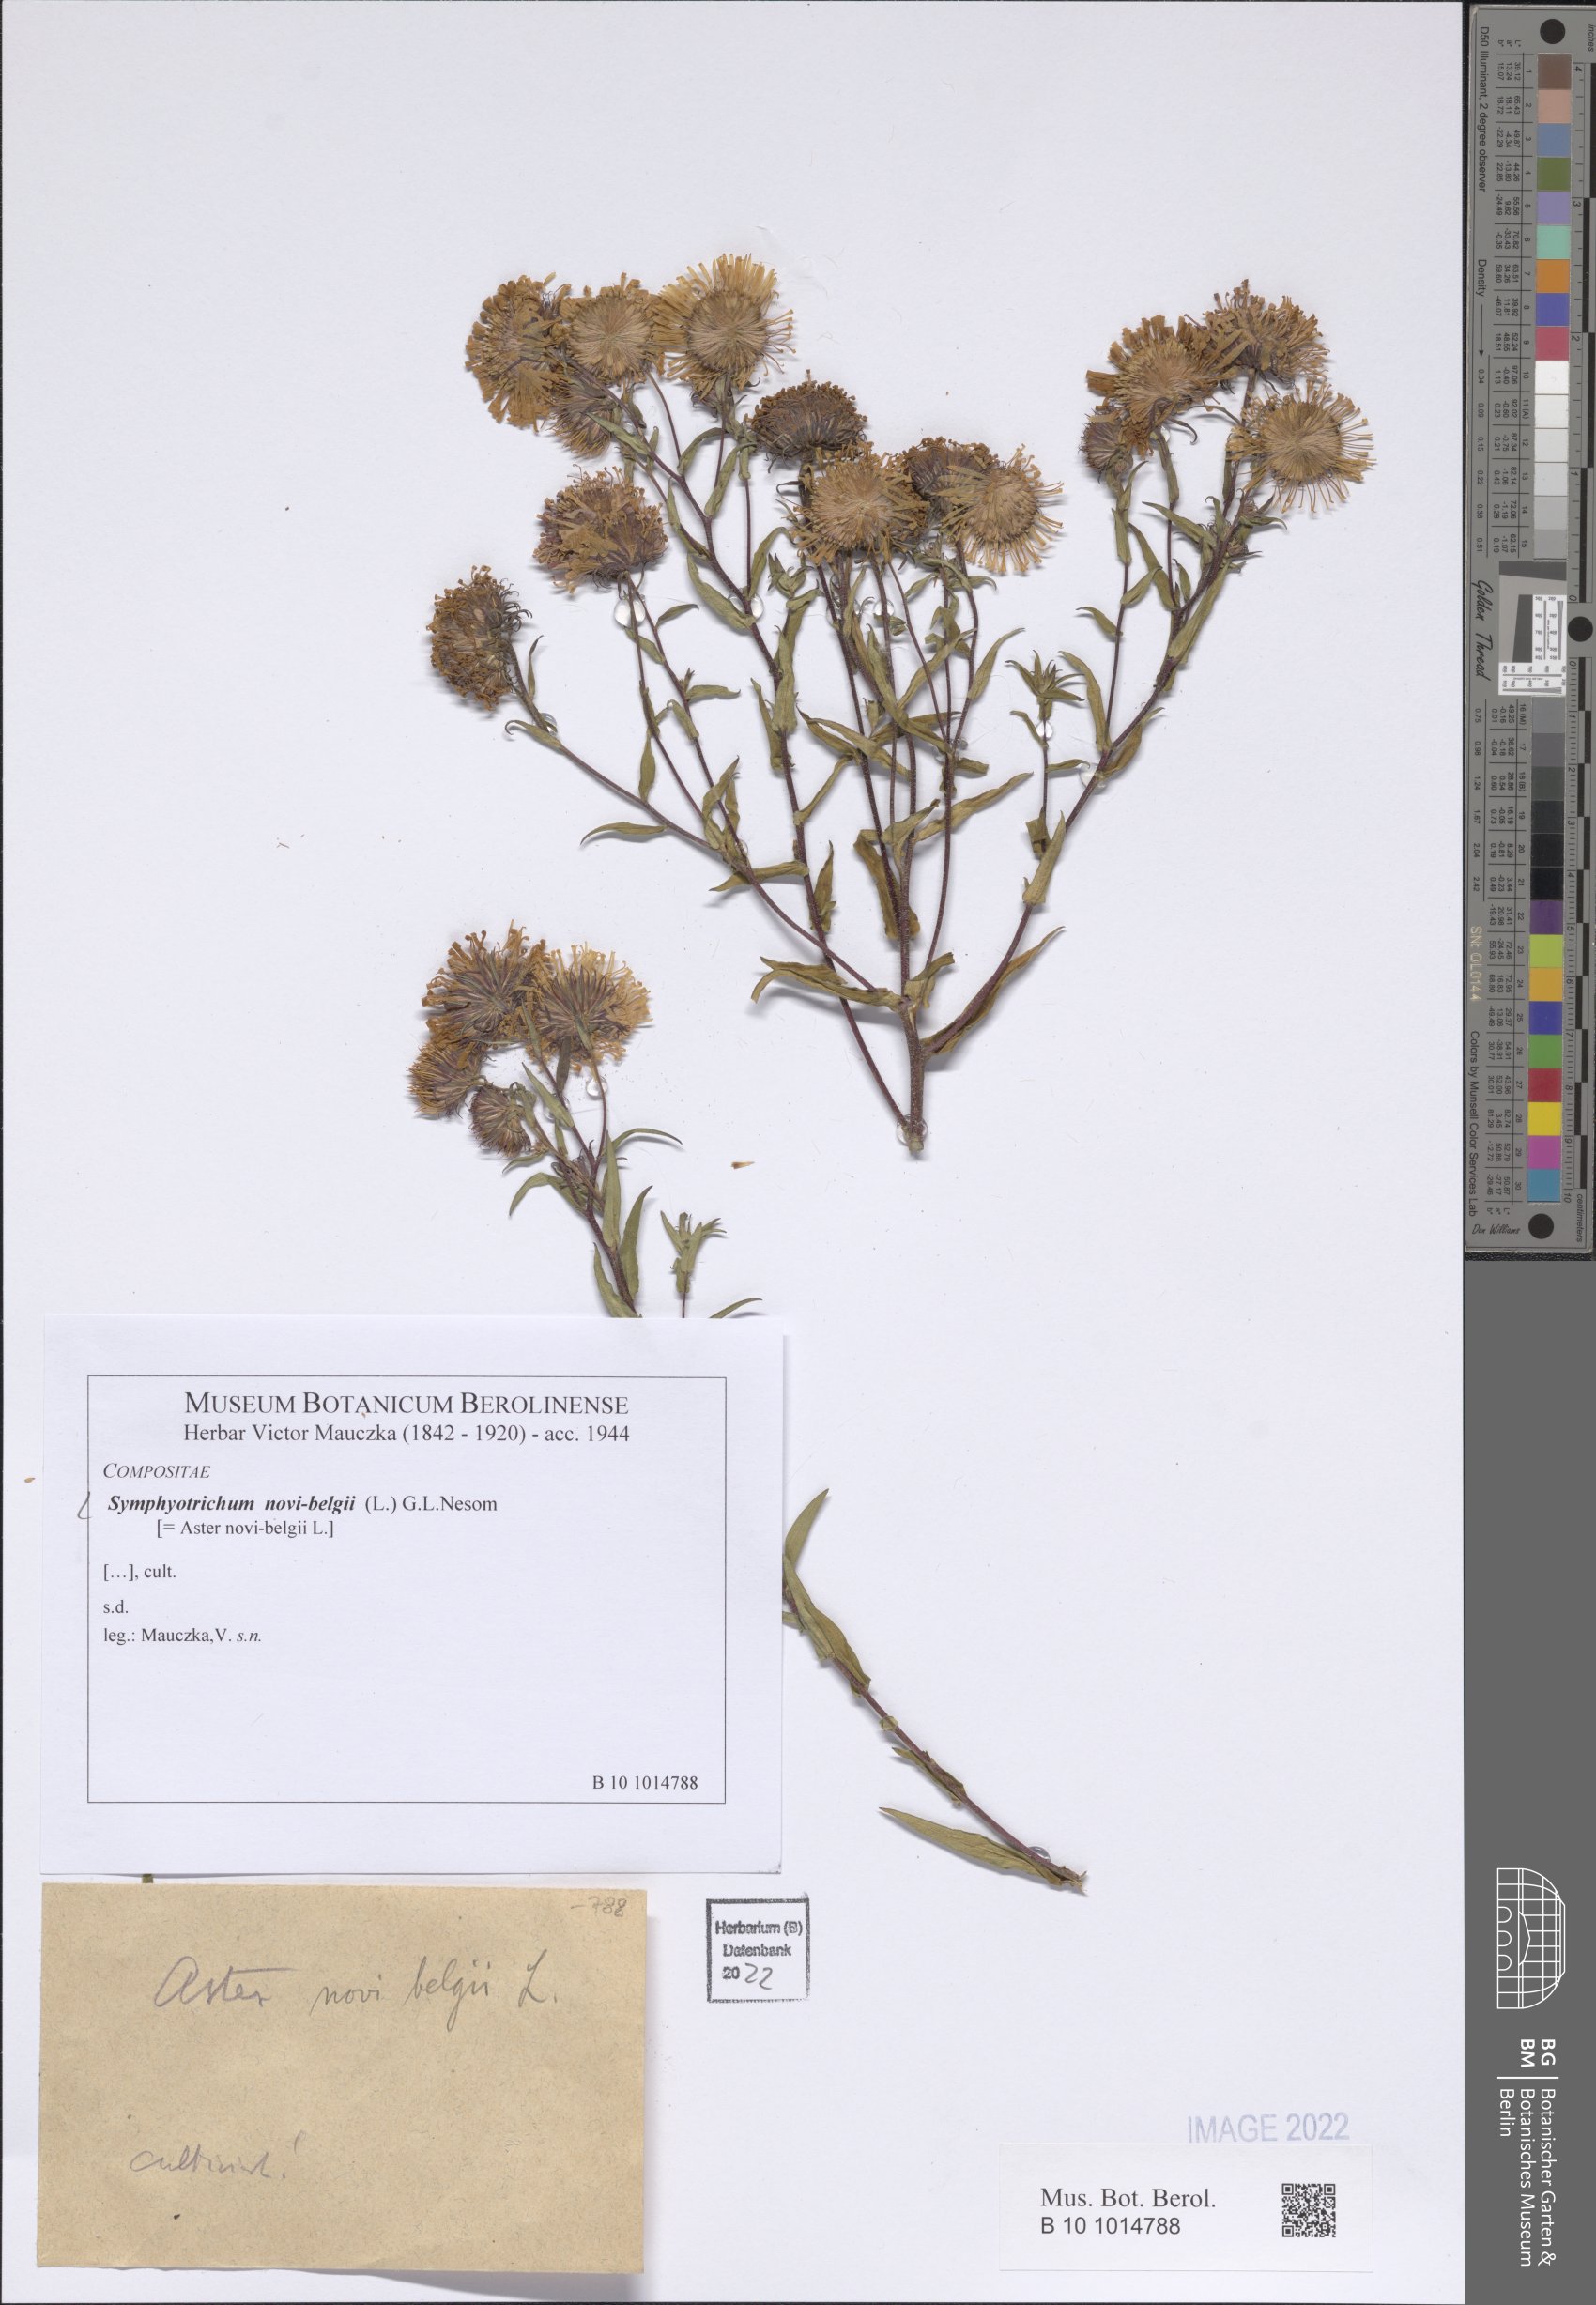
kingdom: Plantae
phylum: Tracheophyta
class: Magnoliopsida
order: Asterales
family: Asteraceae
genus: Symphyotrichum
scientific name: Symphyotrichum novi-belgii
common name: Michaelmas daisy
